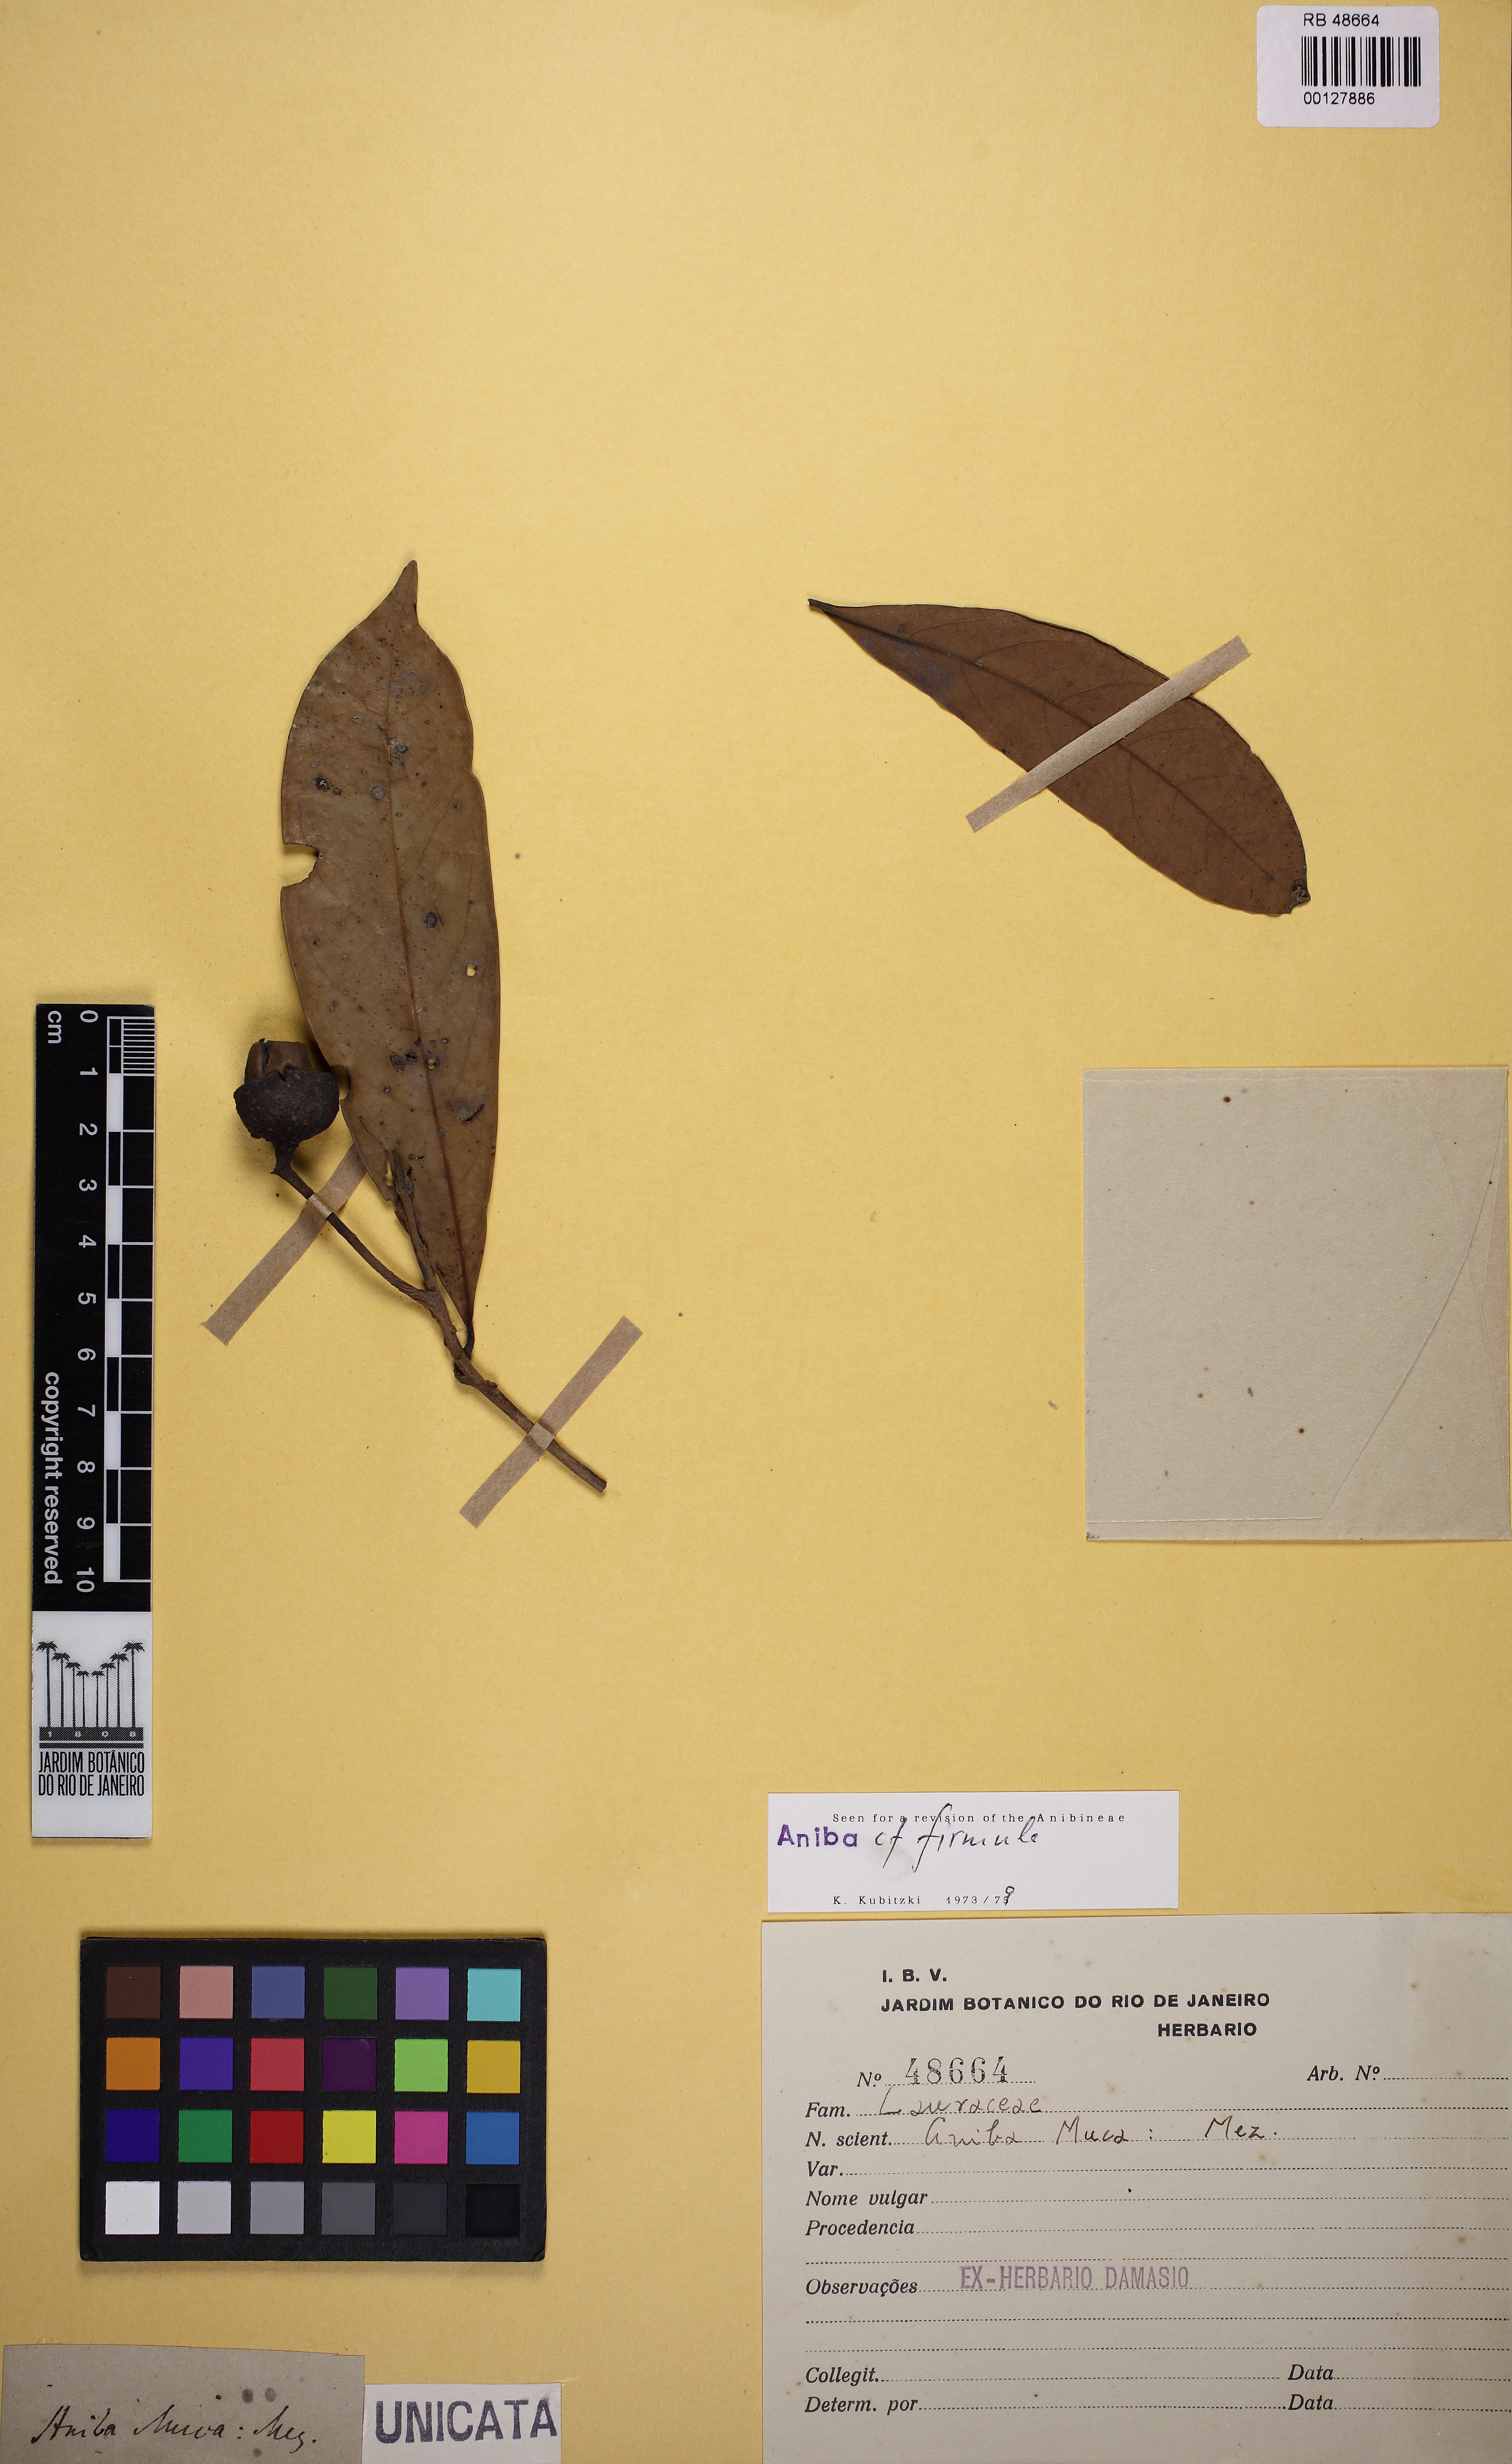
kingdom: Plantae
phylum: Tracheophyta
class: Magnoliopsida
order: Laurales
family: Lauraceae
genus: Aniba
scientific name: Aniba firmula
